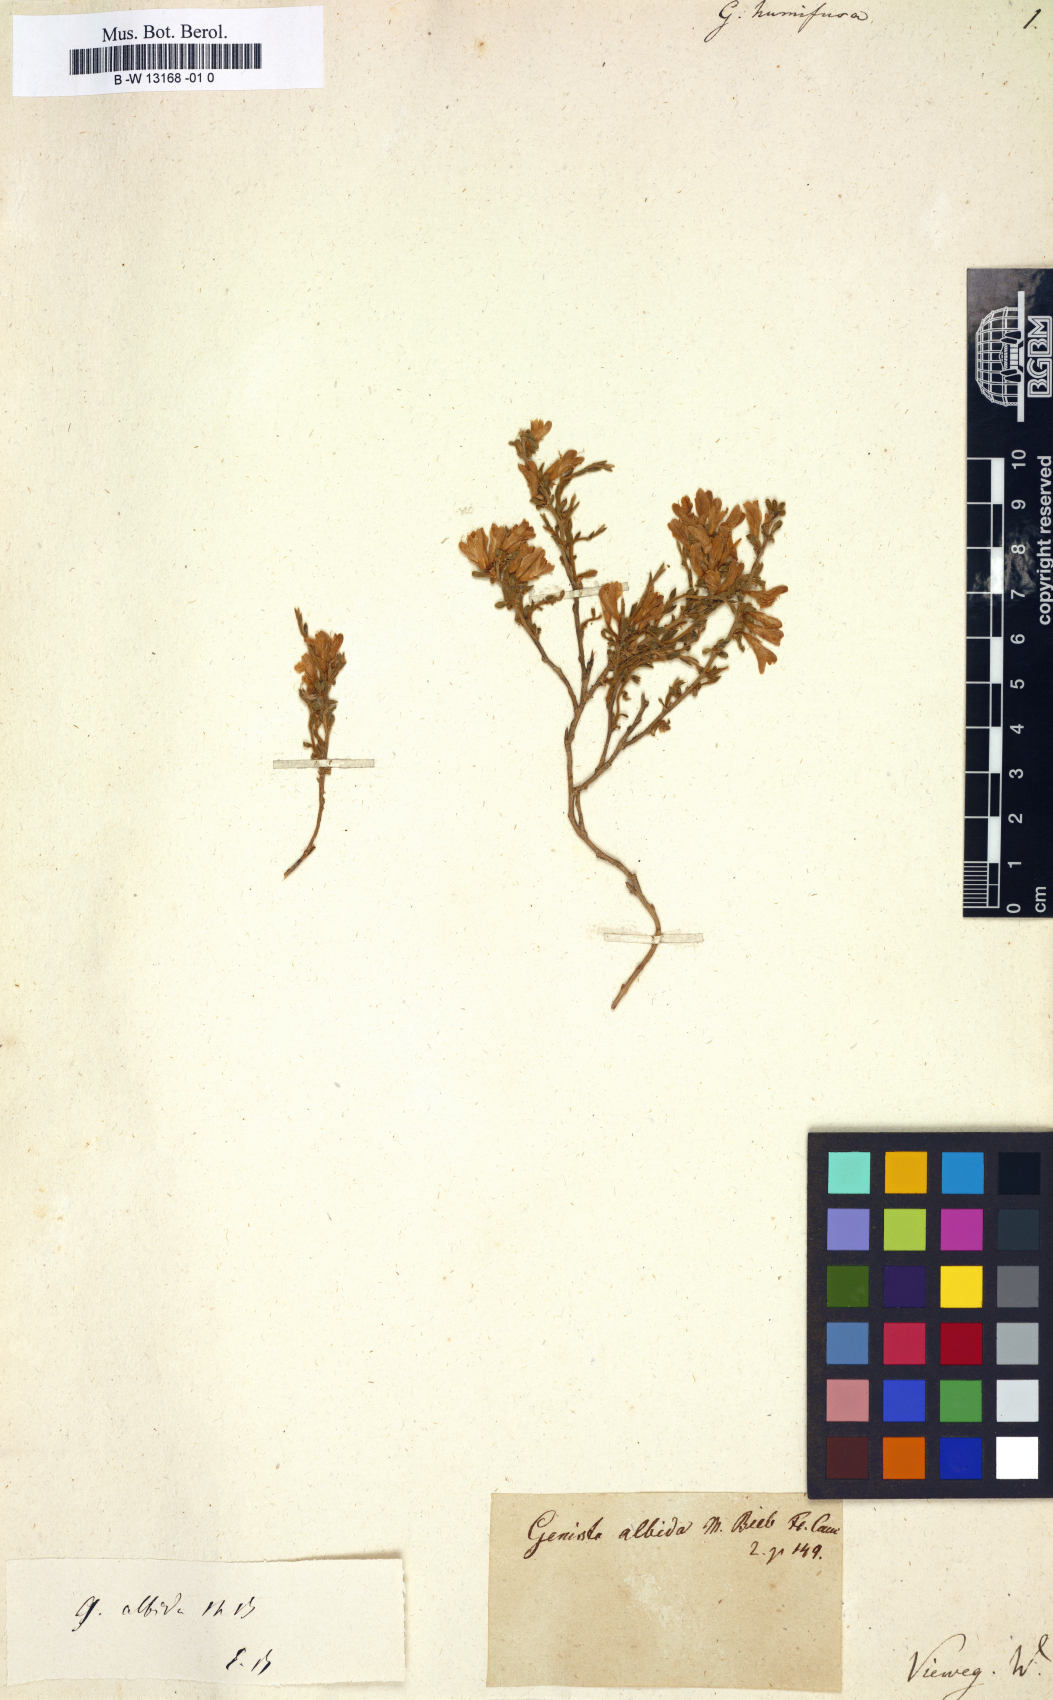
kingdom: Plantae
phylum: Tracheophyta
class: Magnoliopsida
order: Fabales
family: Fabaceae
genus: Genista
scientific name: Genista humifusa
